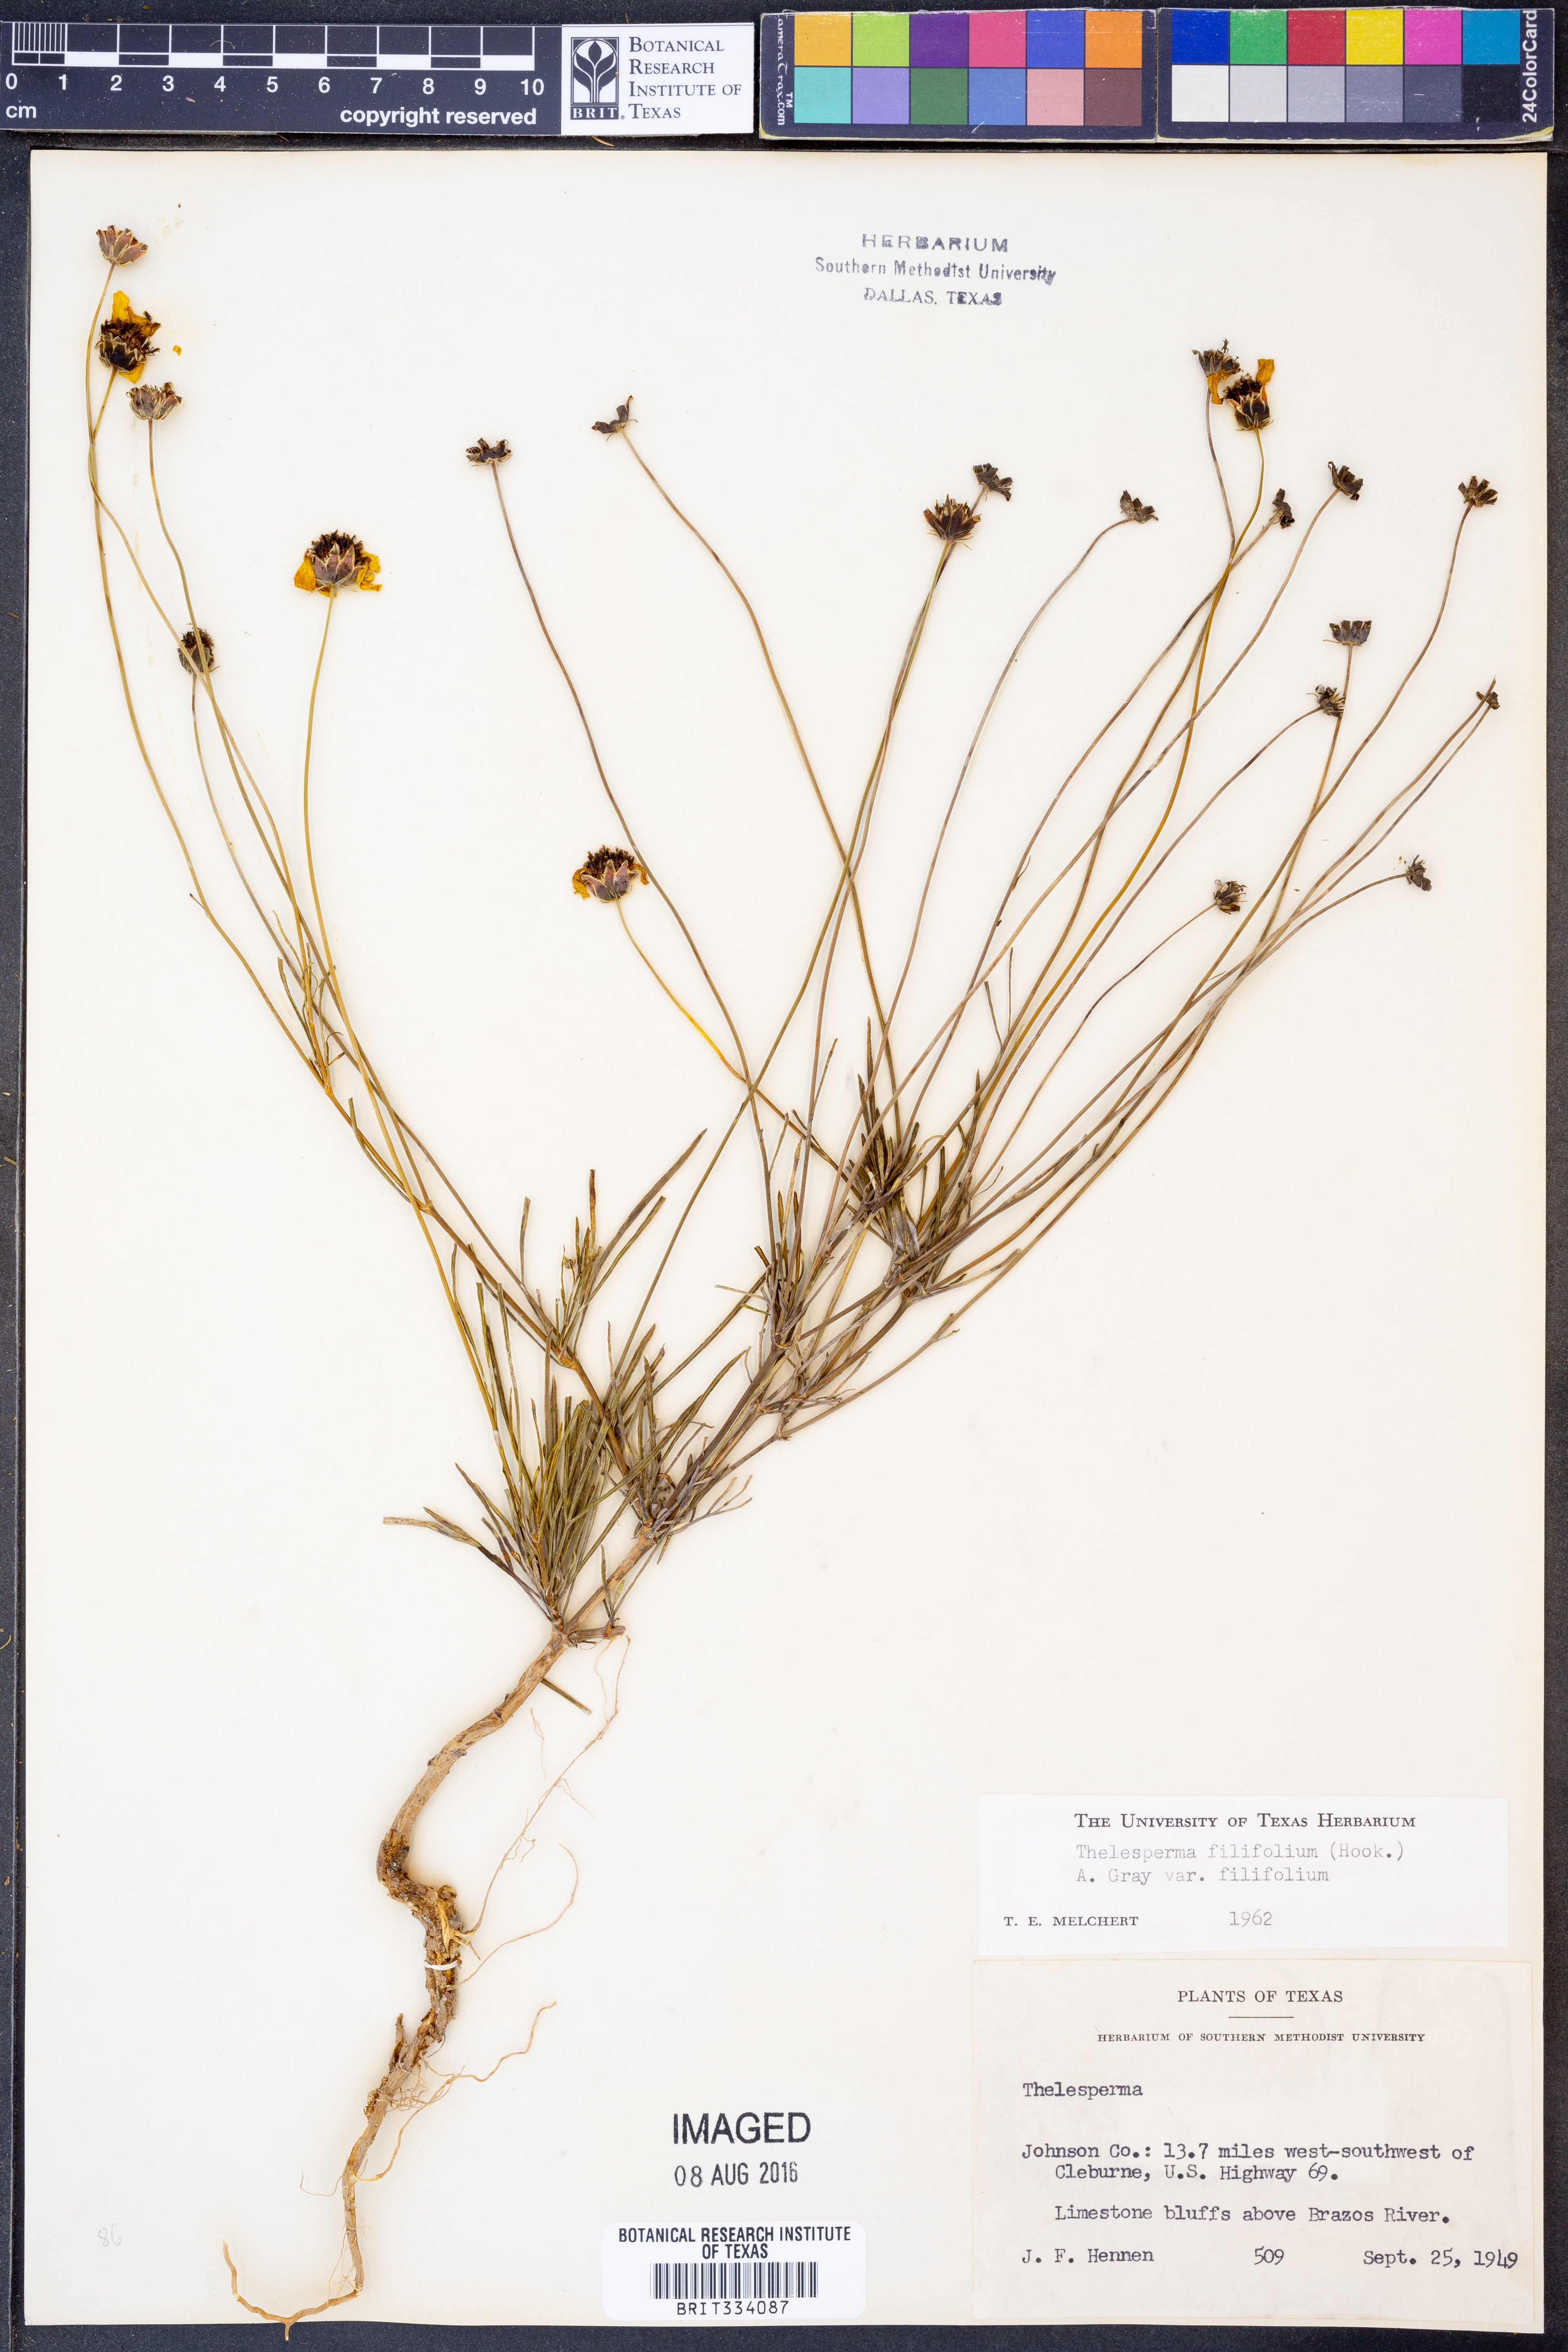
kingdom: Plantae
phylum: Tracheophyta
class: Magnoliopsida
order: Asterales
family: Asteraceae
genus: Thelesperma
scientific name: Thelesperma filifolium
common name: Stiff greenthread
